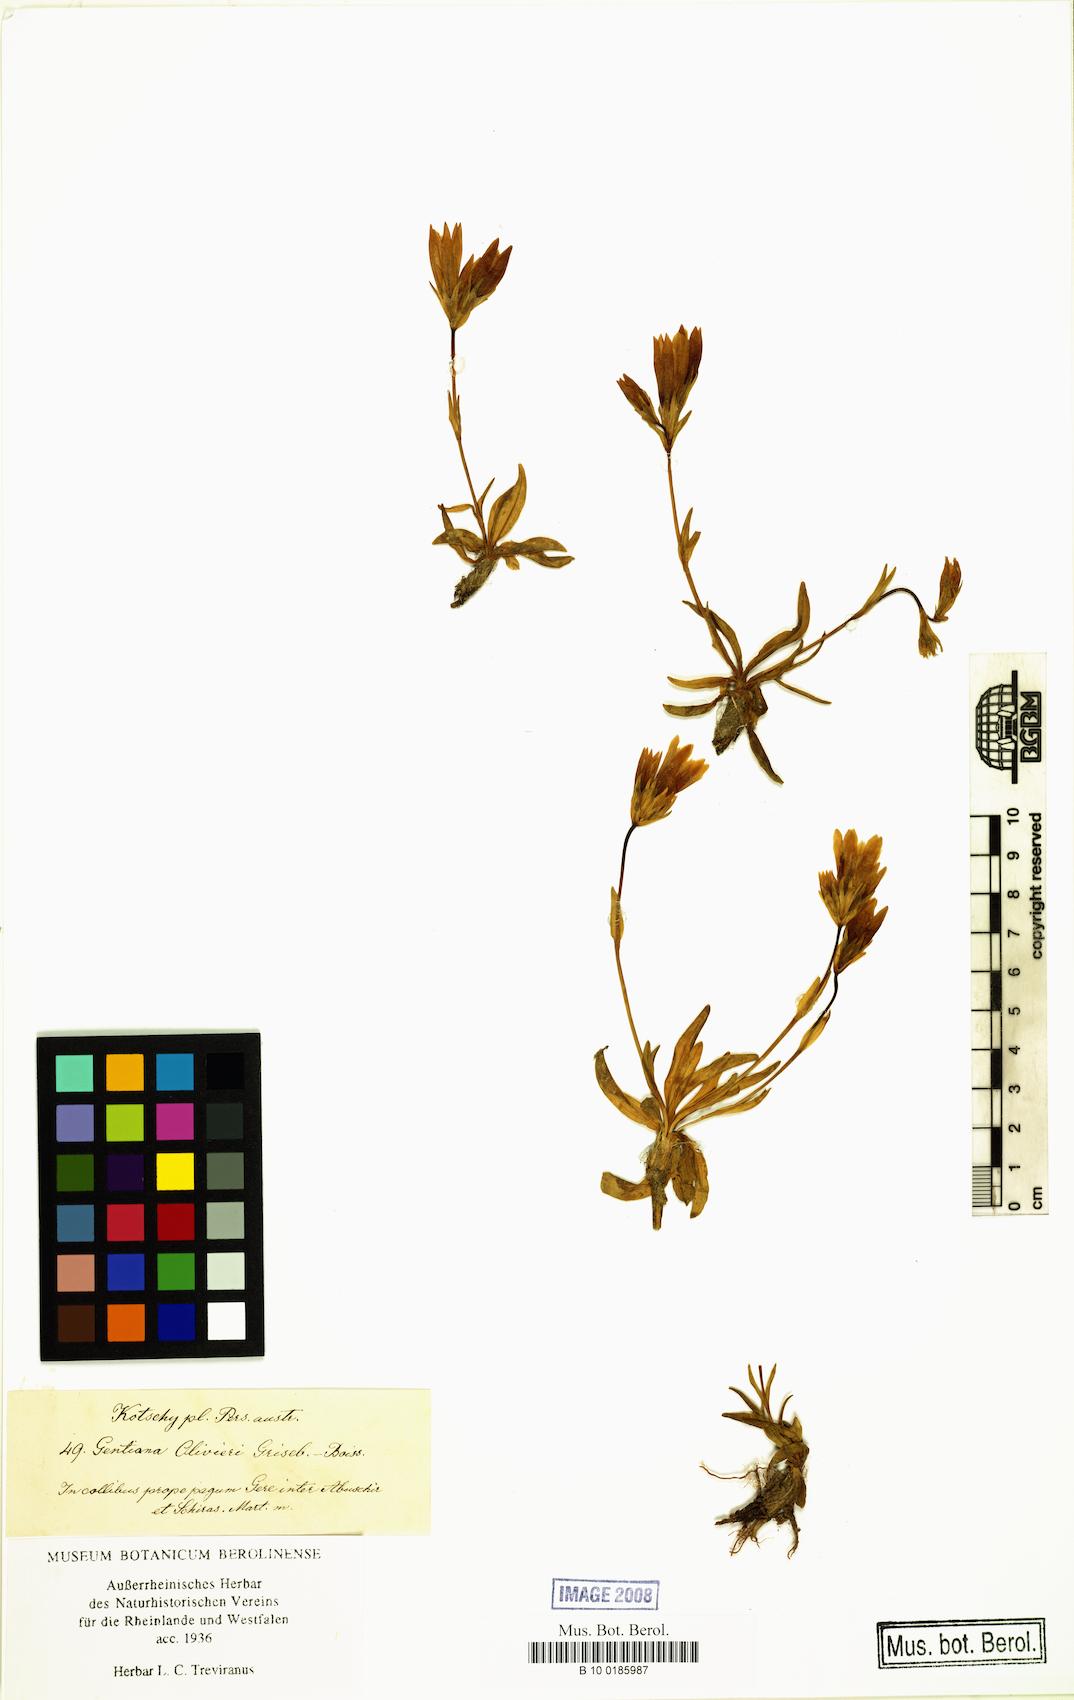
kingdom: Plantae
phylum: Tracheophyta
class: Magnoliopsida
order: Gentianales
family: Gentianaceae
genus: Gentiana
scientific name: Gentiana decumbens
